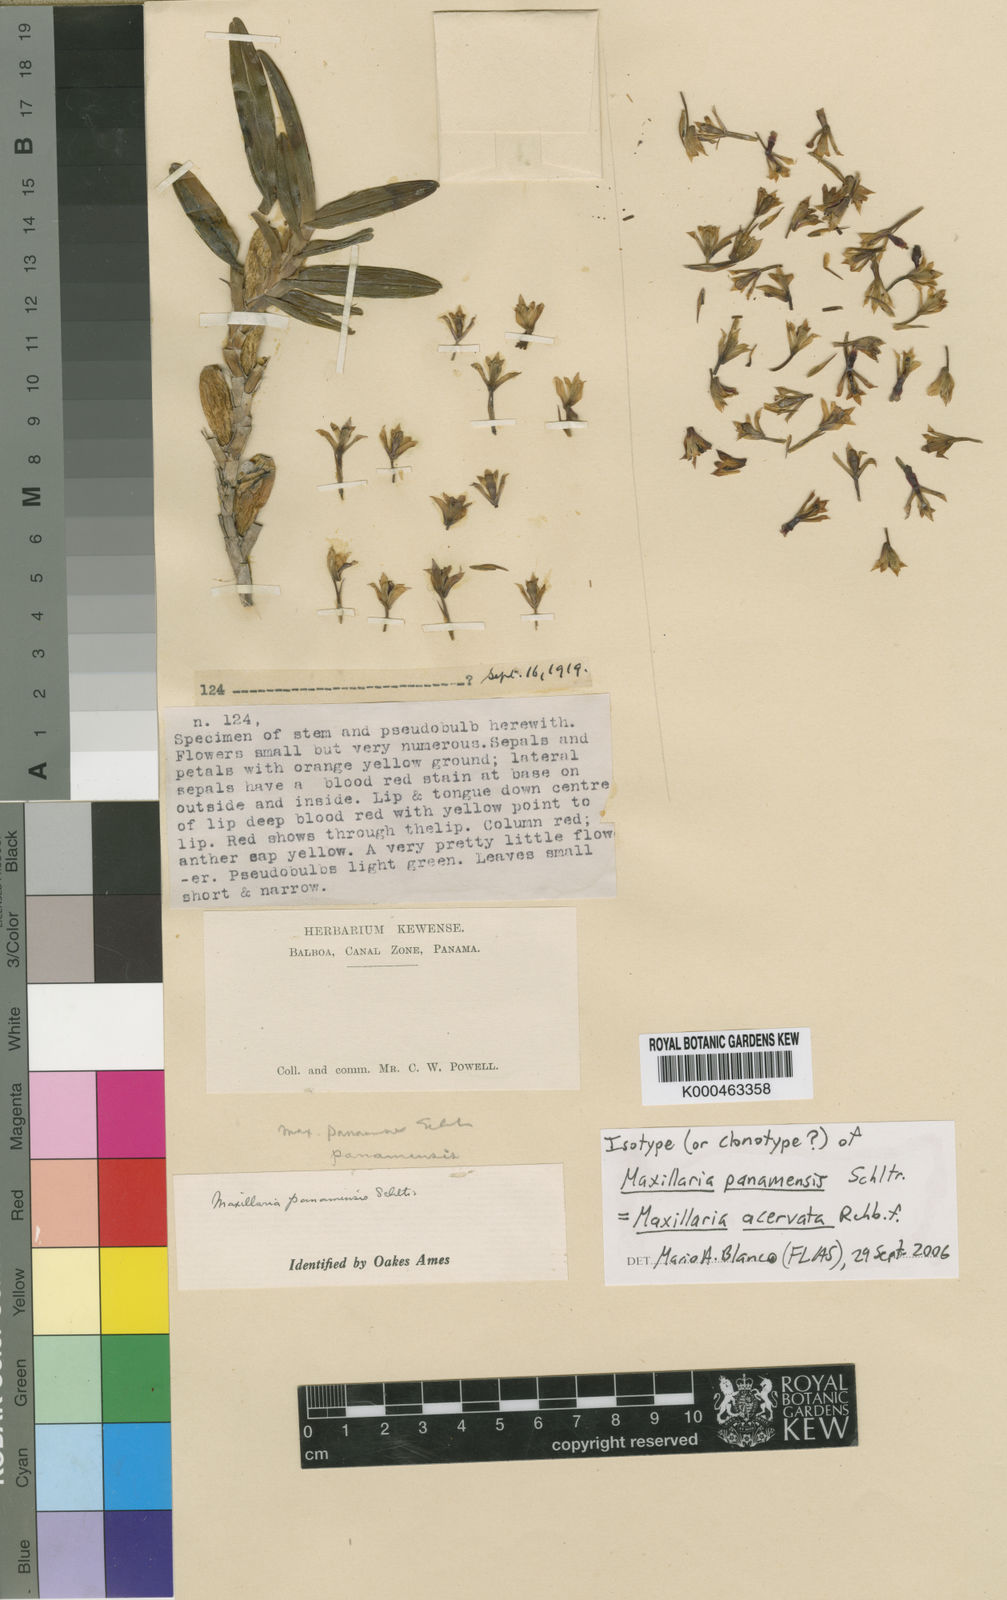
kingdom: Plantae
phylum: Tracheophyta
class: Liliopsida
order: Asparagales
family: Orchidaceae
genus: Maxillaria
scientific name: Maxillaria variabilis
